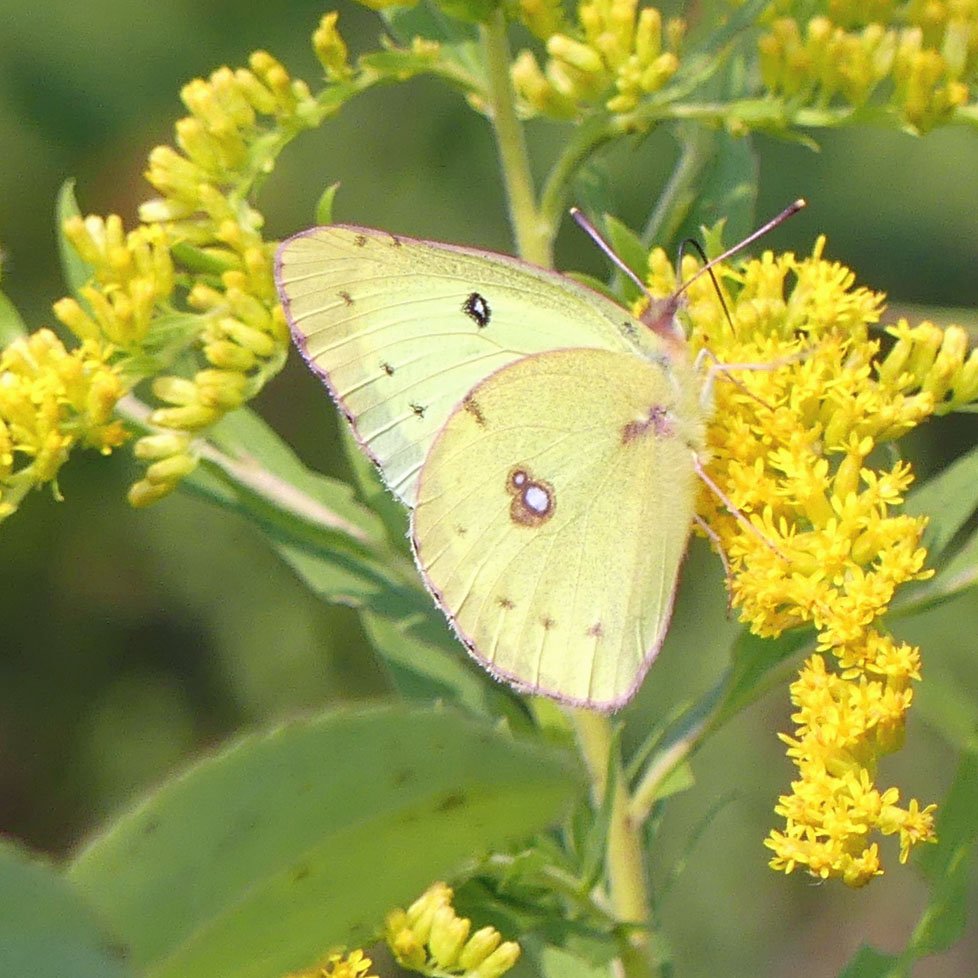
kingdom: Animalia
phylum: Arthropoda
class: Insecta
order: Lepidoptera
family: Pieridae
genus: Colias
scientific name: Colias philodice
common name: Clouded Sulphur
